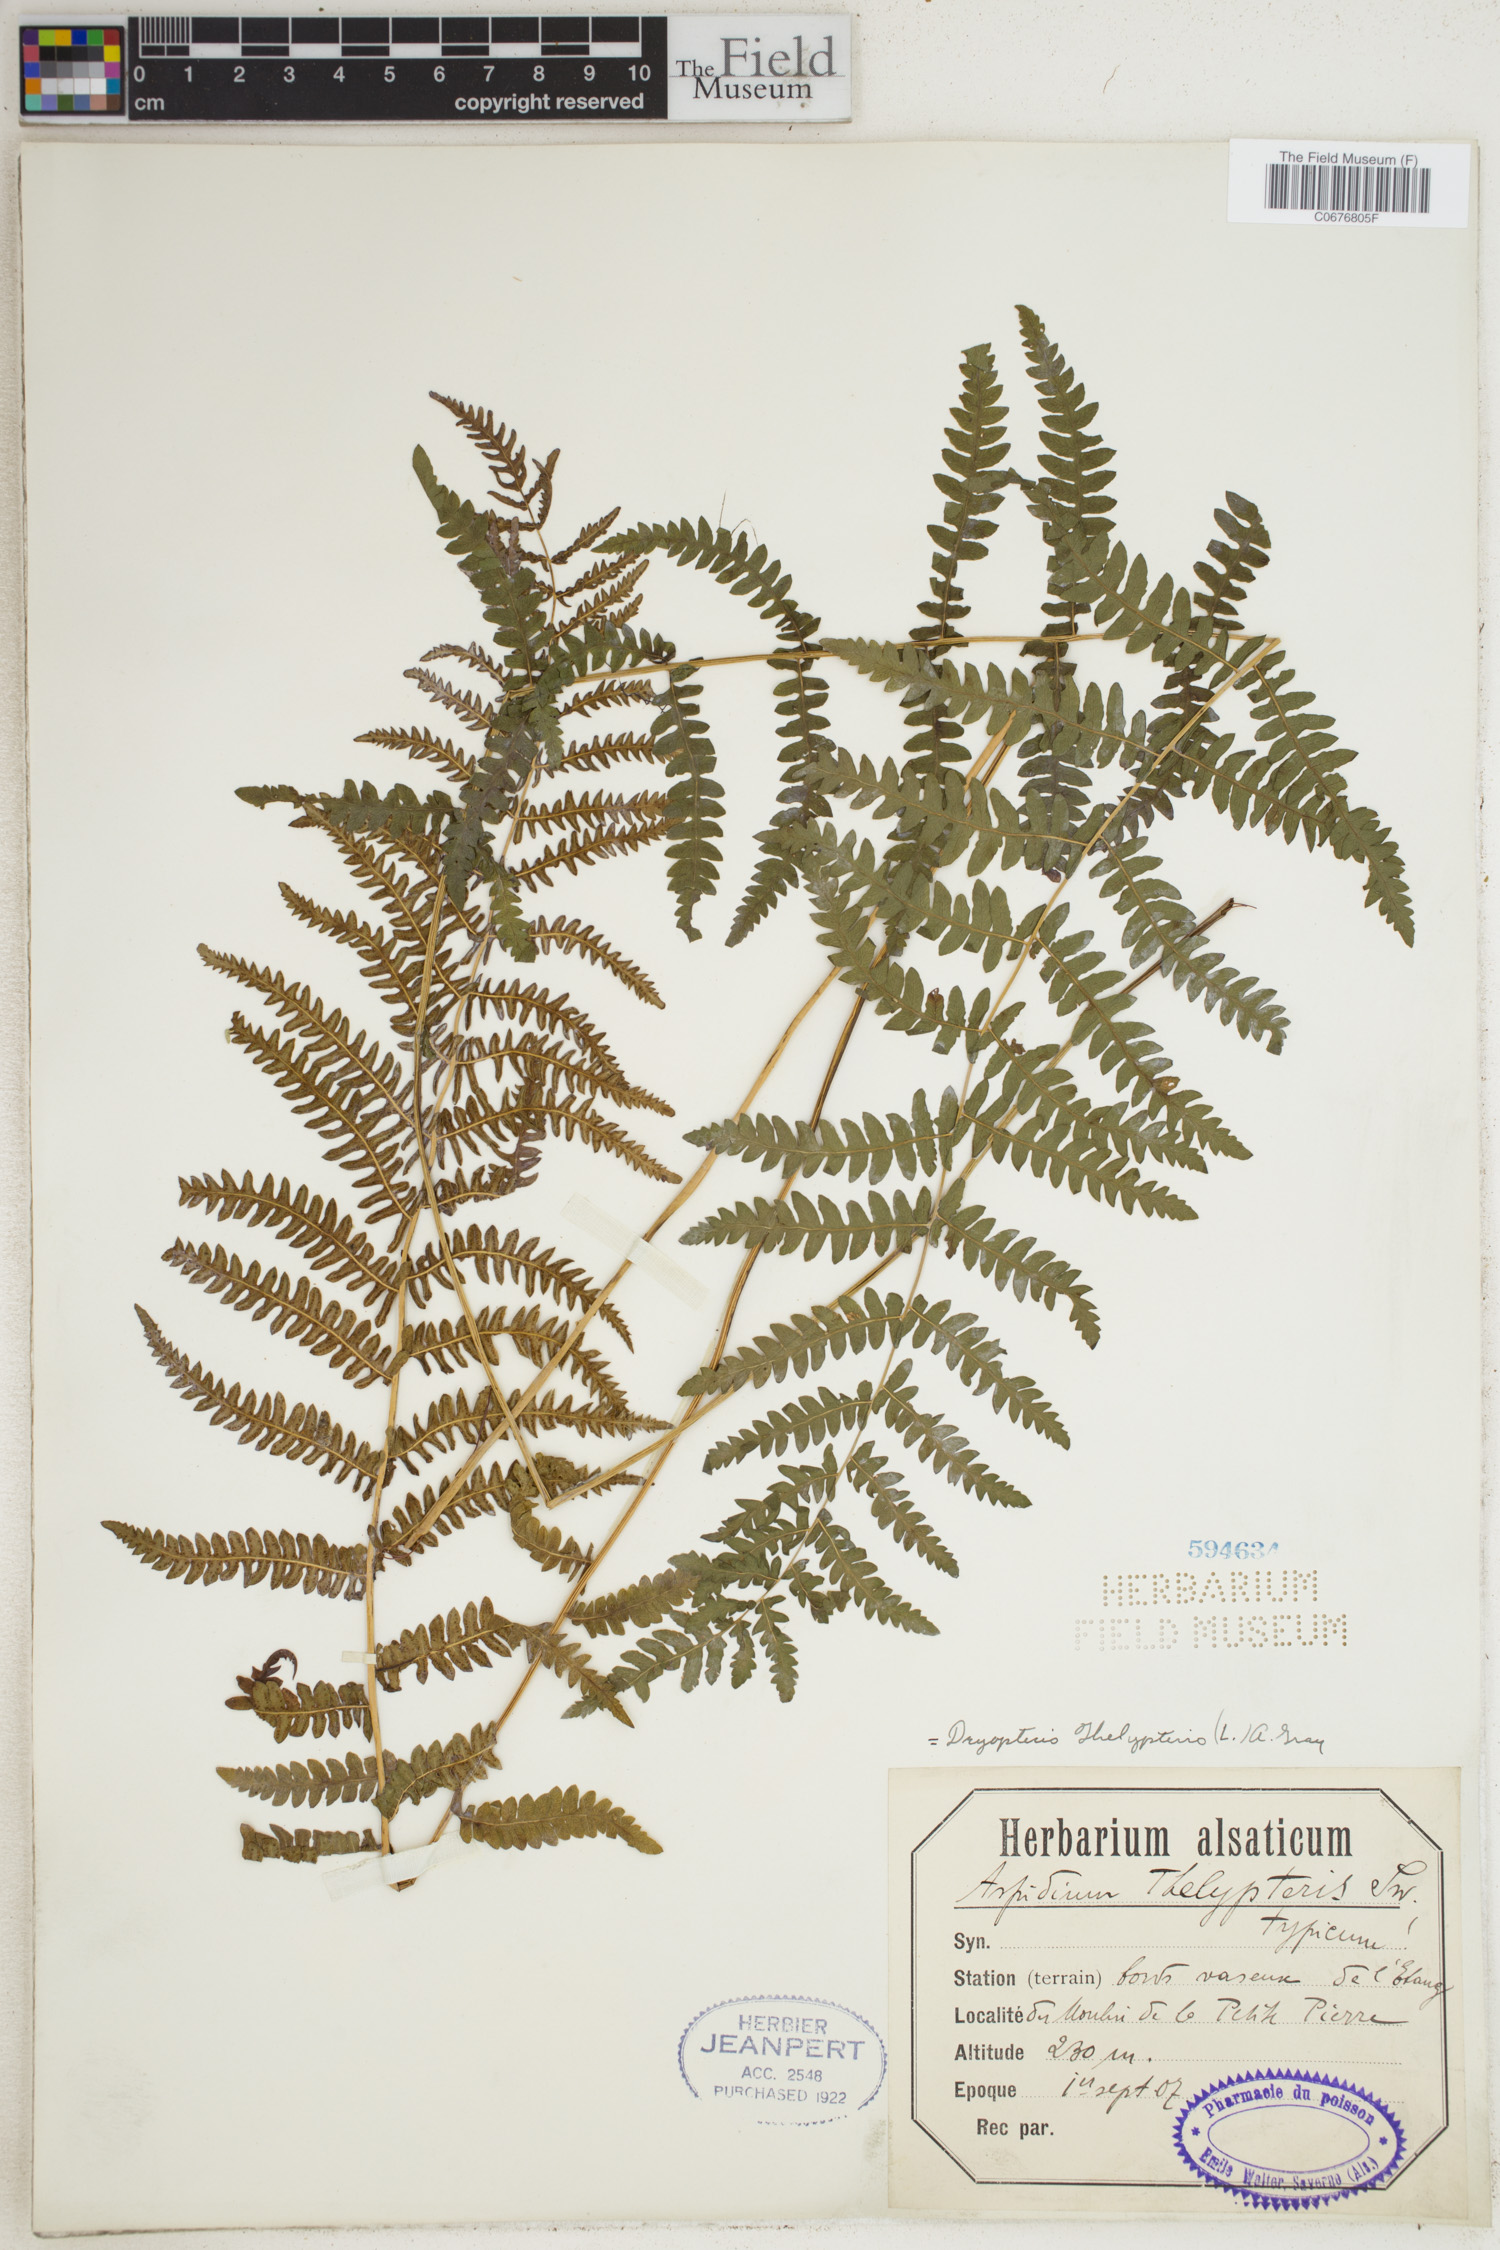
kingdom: Plantae
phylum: Tracheophyta
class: Polypodiopsida
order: Polypodiales
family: Thelypteridaceae
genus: Thelypteris
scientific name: Thelypteris palustris
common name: Marsh fern
